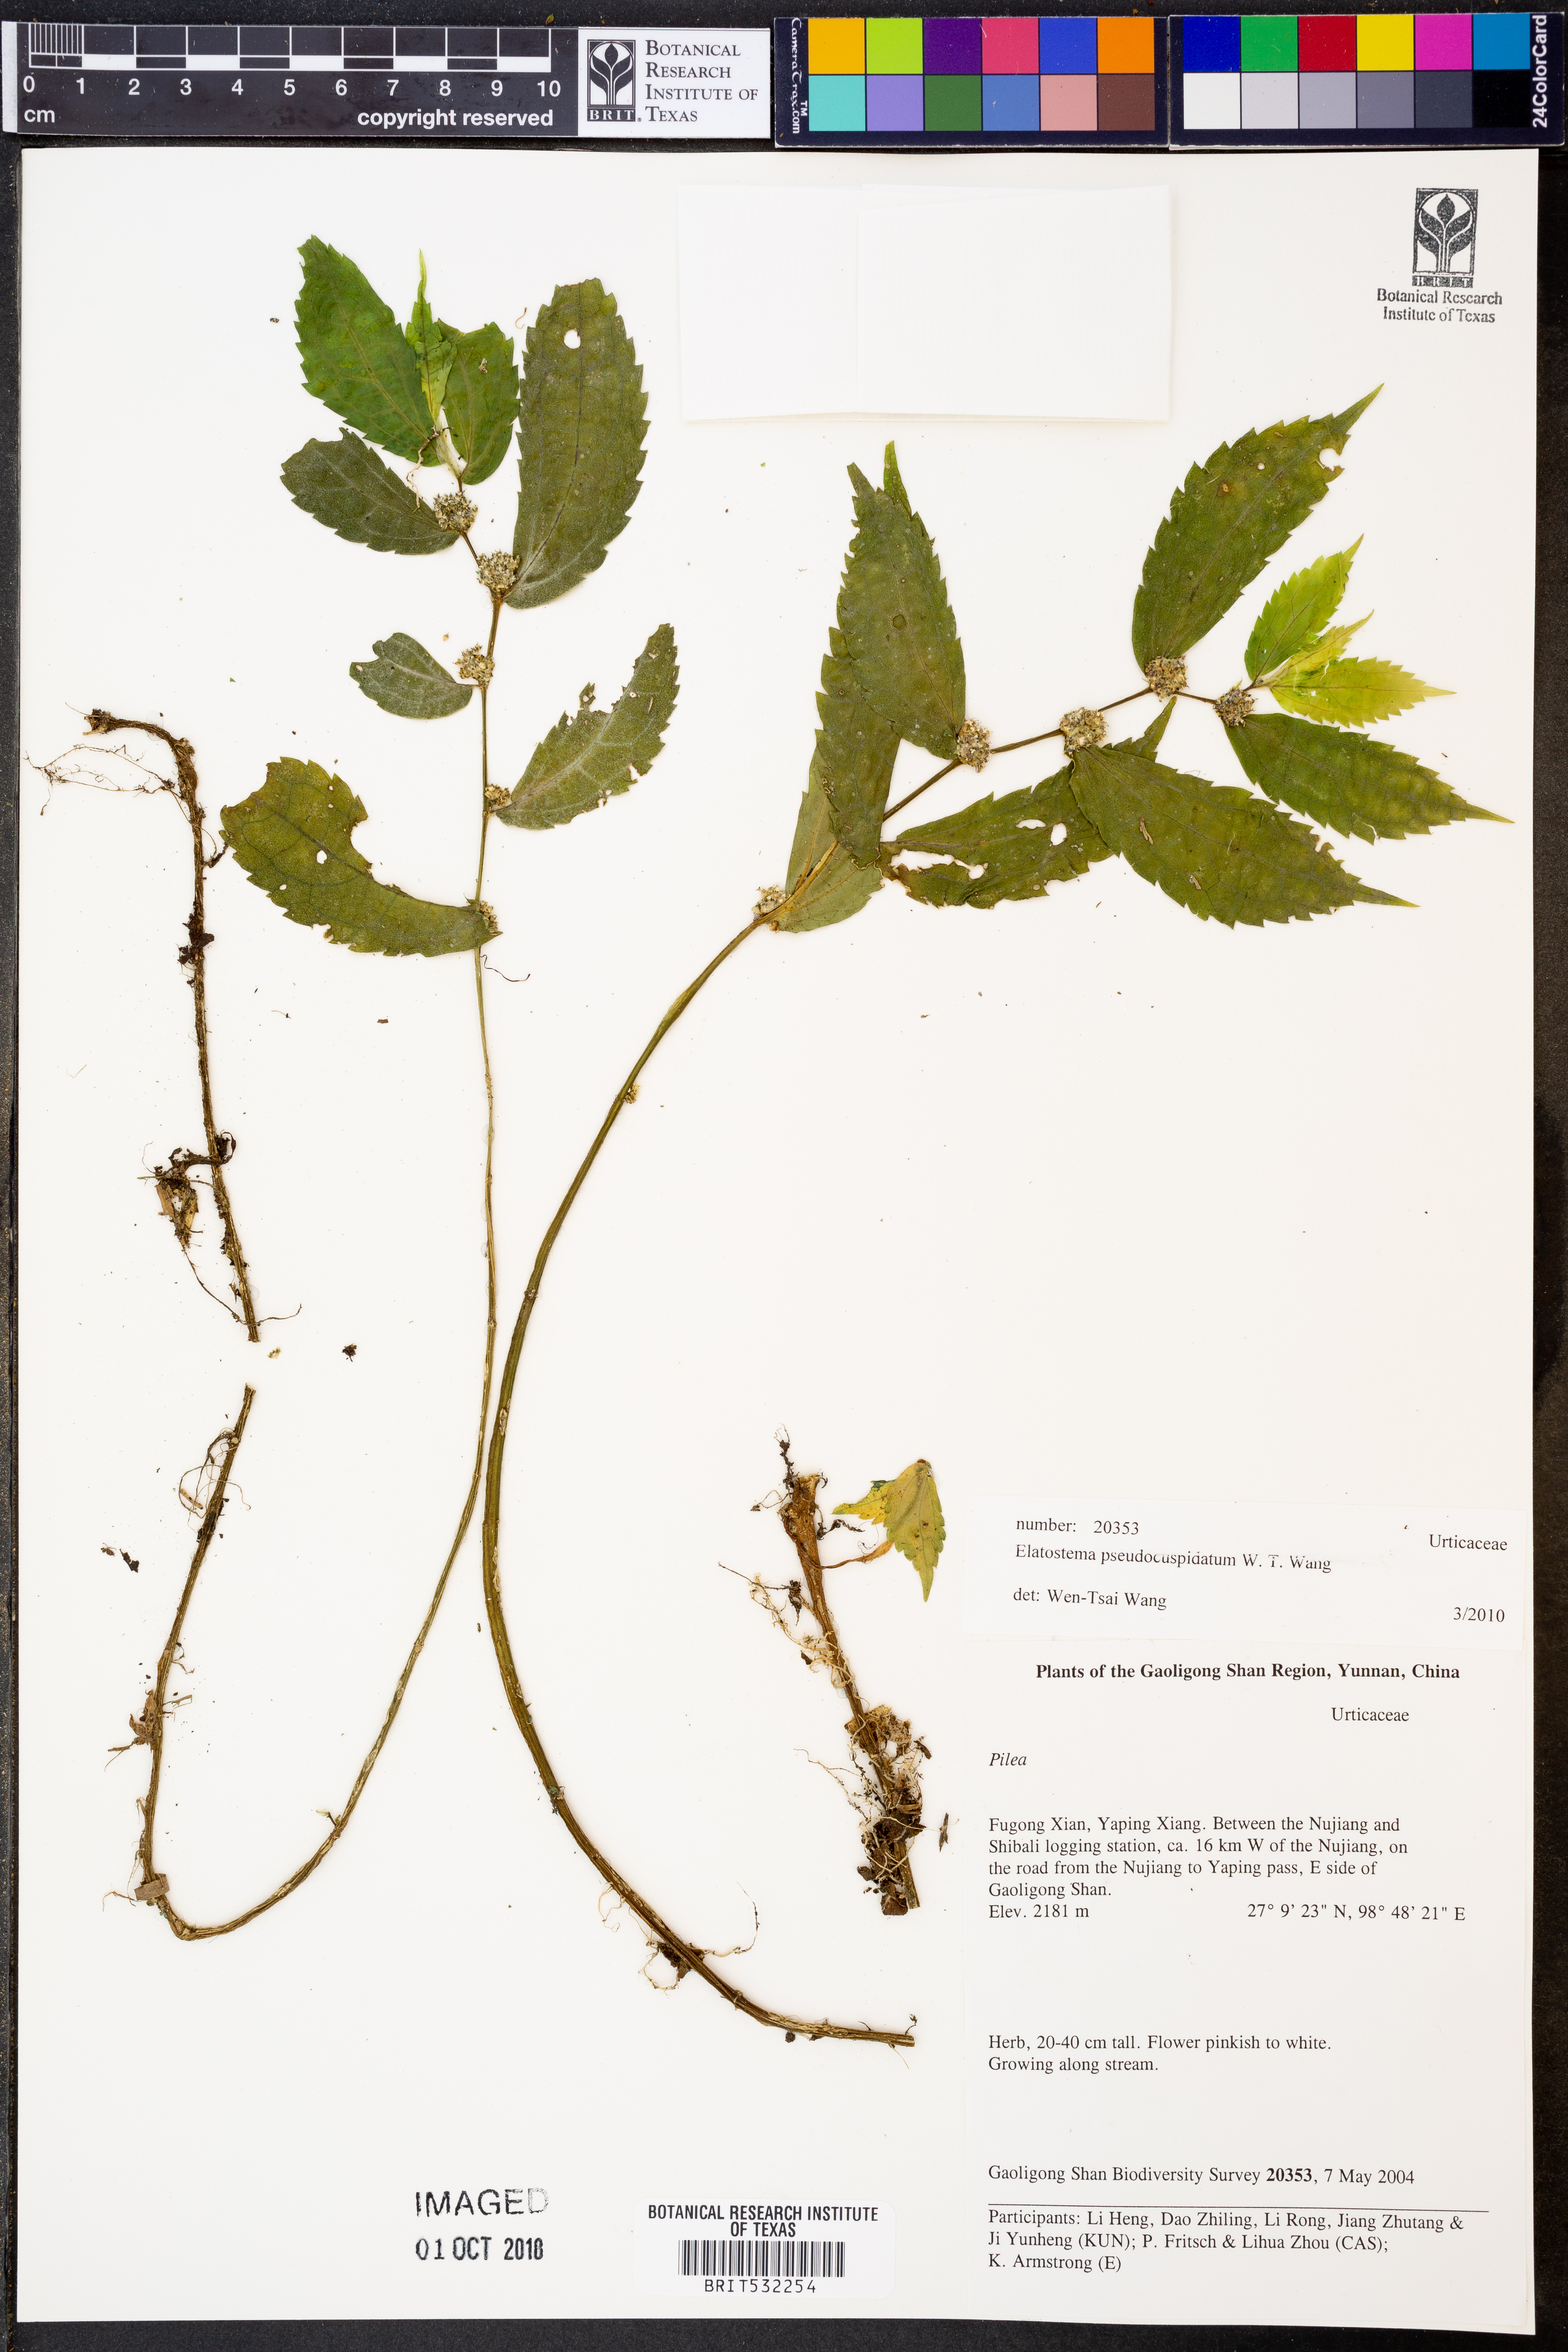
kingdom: Plantae
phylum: Tracheophyta
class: Magnoliopsida
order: Rosales
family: Urticaceae
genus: Elatostema
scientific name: Elatostema pseudocuspidatum
